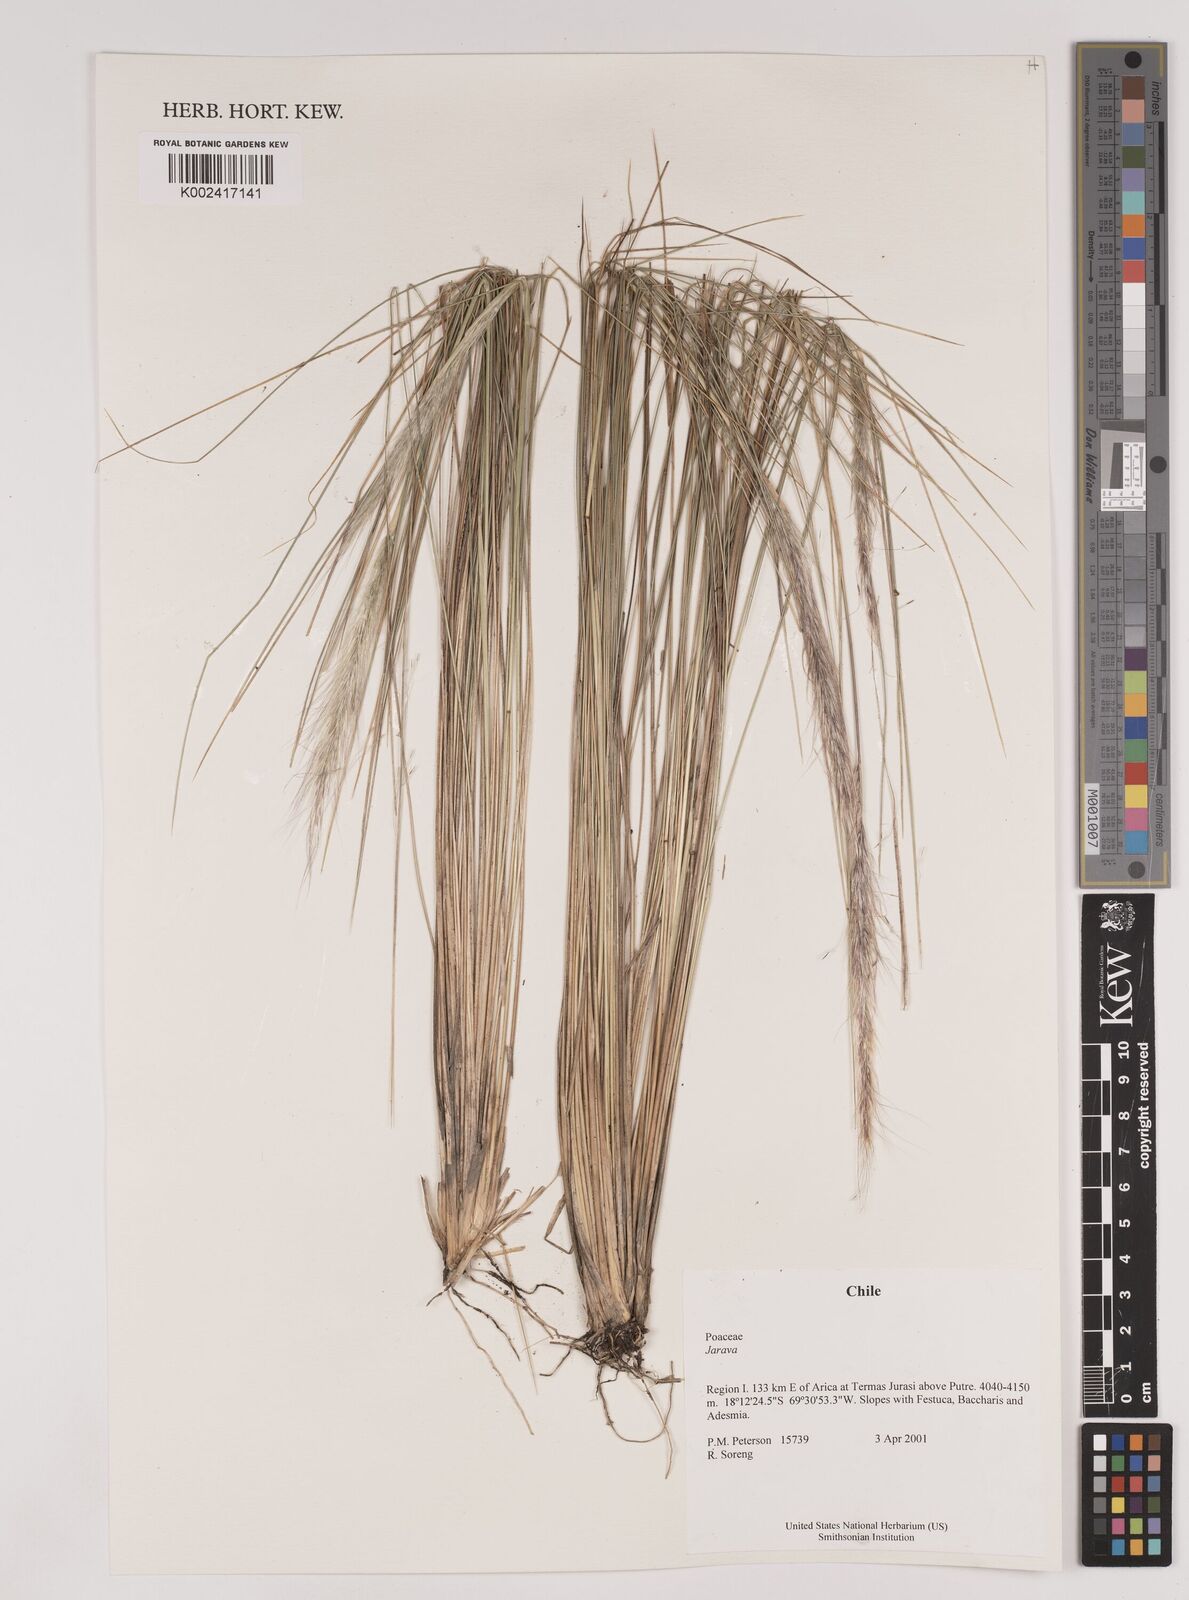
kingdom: Plantae
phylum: Tracheophyta
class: Liliopsida
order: Poales
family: Poaceae
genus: Stipa
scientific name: Stipa
